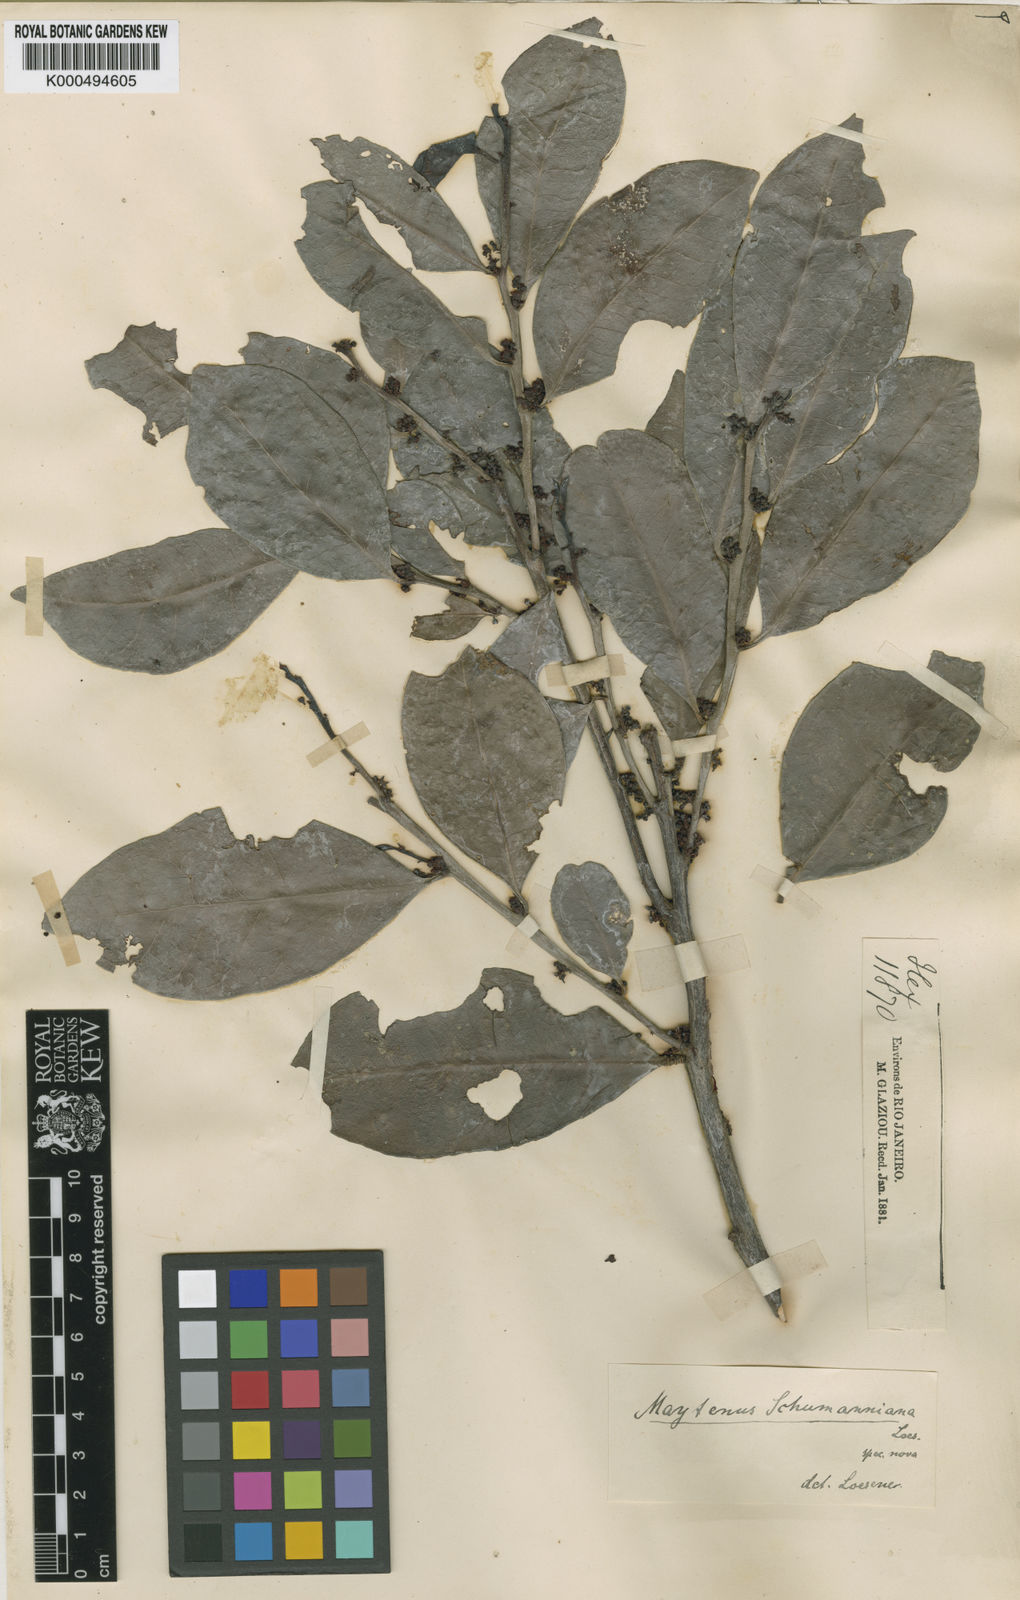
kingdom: Plantae
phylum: Tracheophyta
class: Magnoliopsida
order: Celastrales
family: Celastraceae
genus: Monteverdia
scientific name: Monteverdia schumanniana
